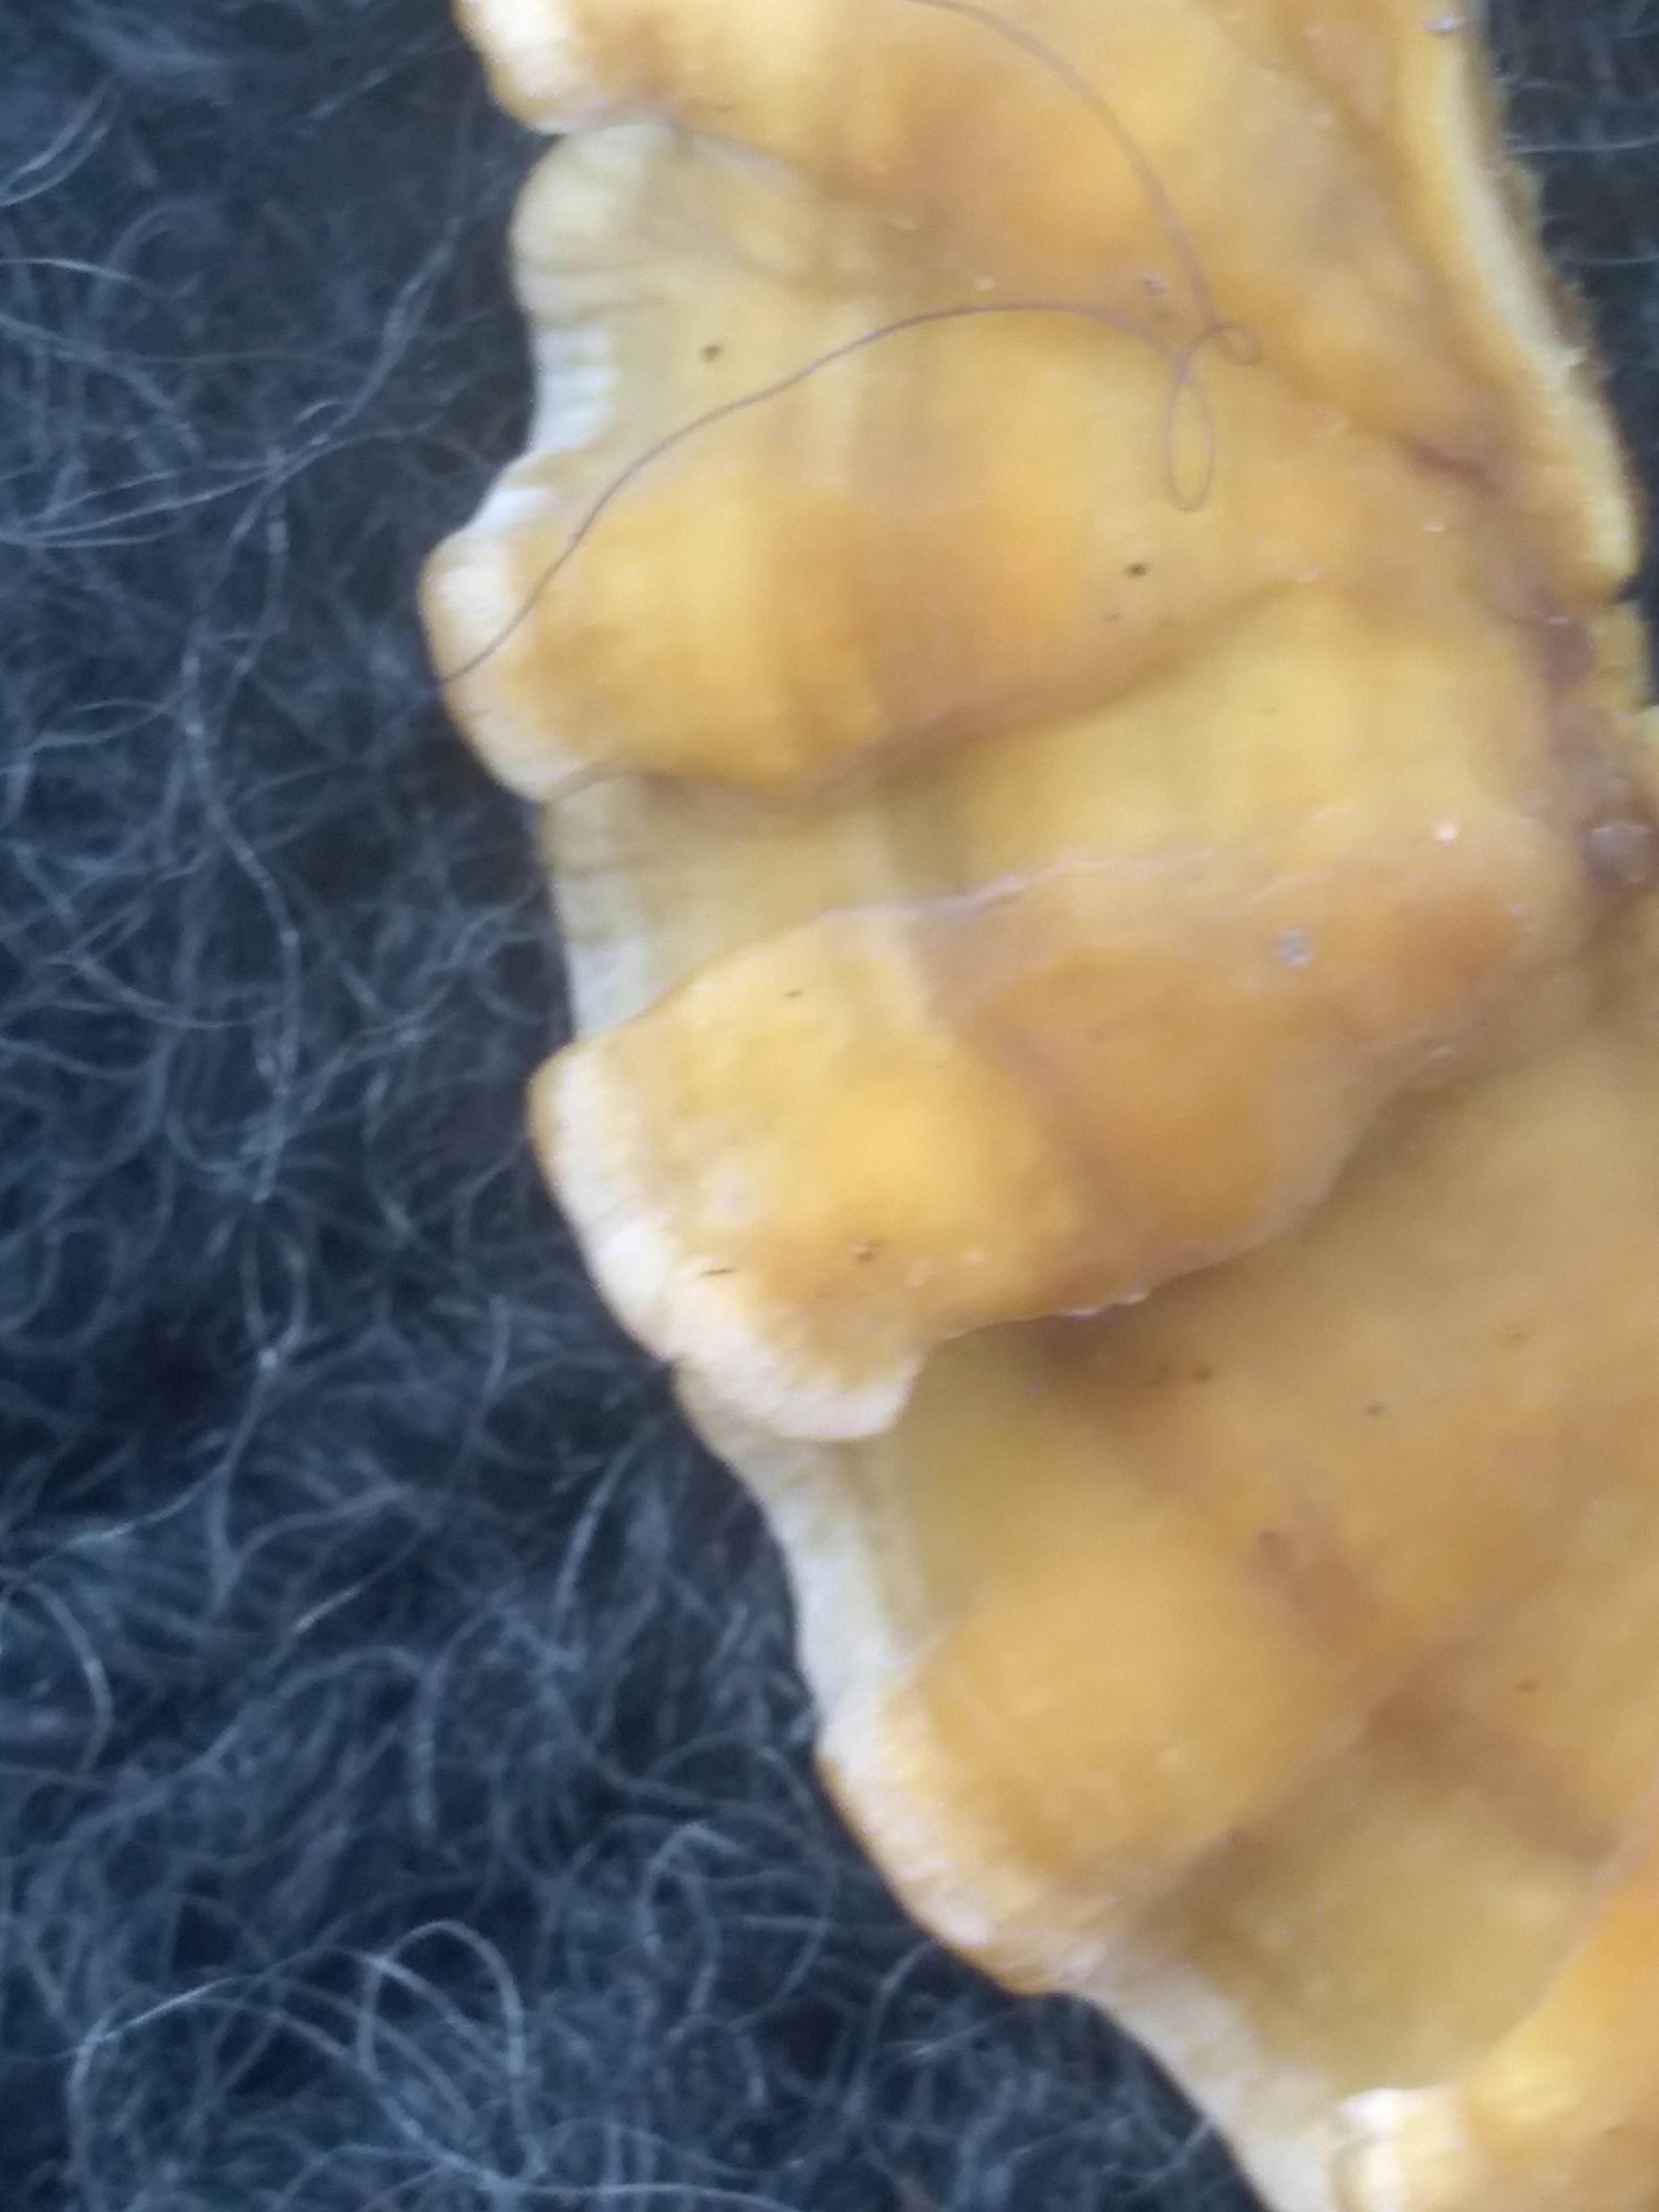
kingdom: Fungi
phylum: Basidiomycota
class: Agaricomycetes
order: Russulales
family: Stereaceae
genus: Stereum
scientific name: Stereum hirsutum
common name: håret lædersvamp
